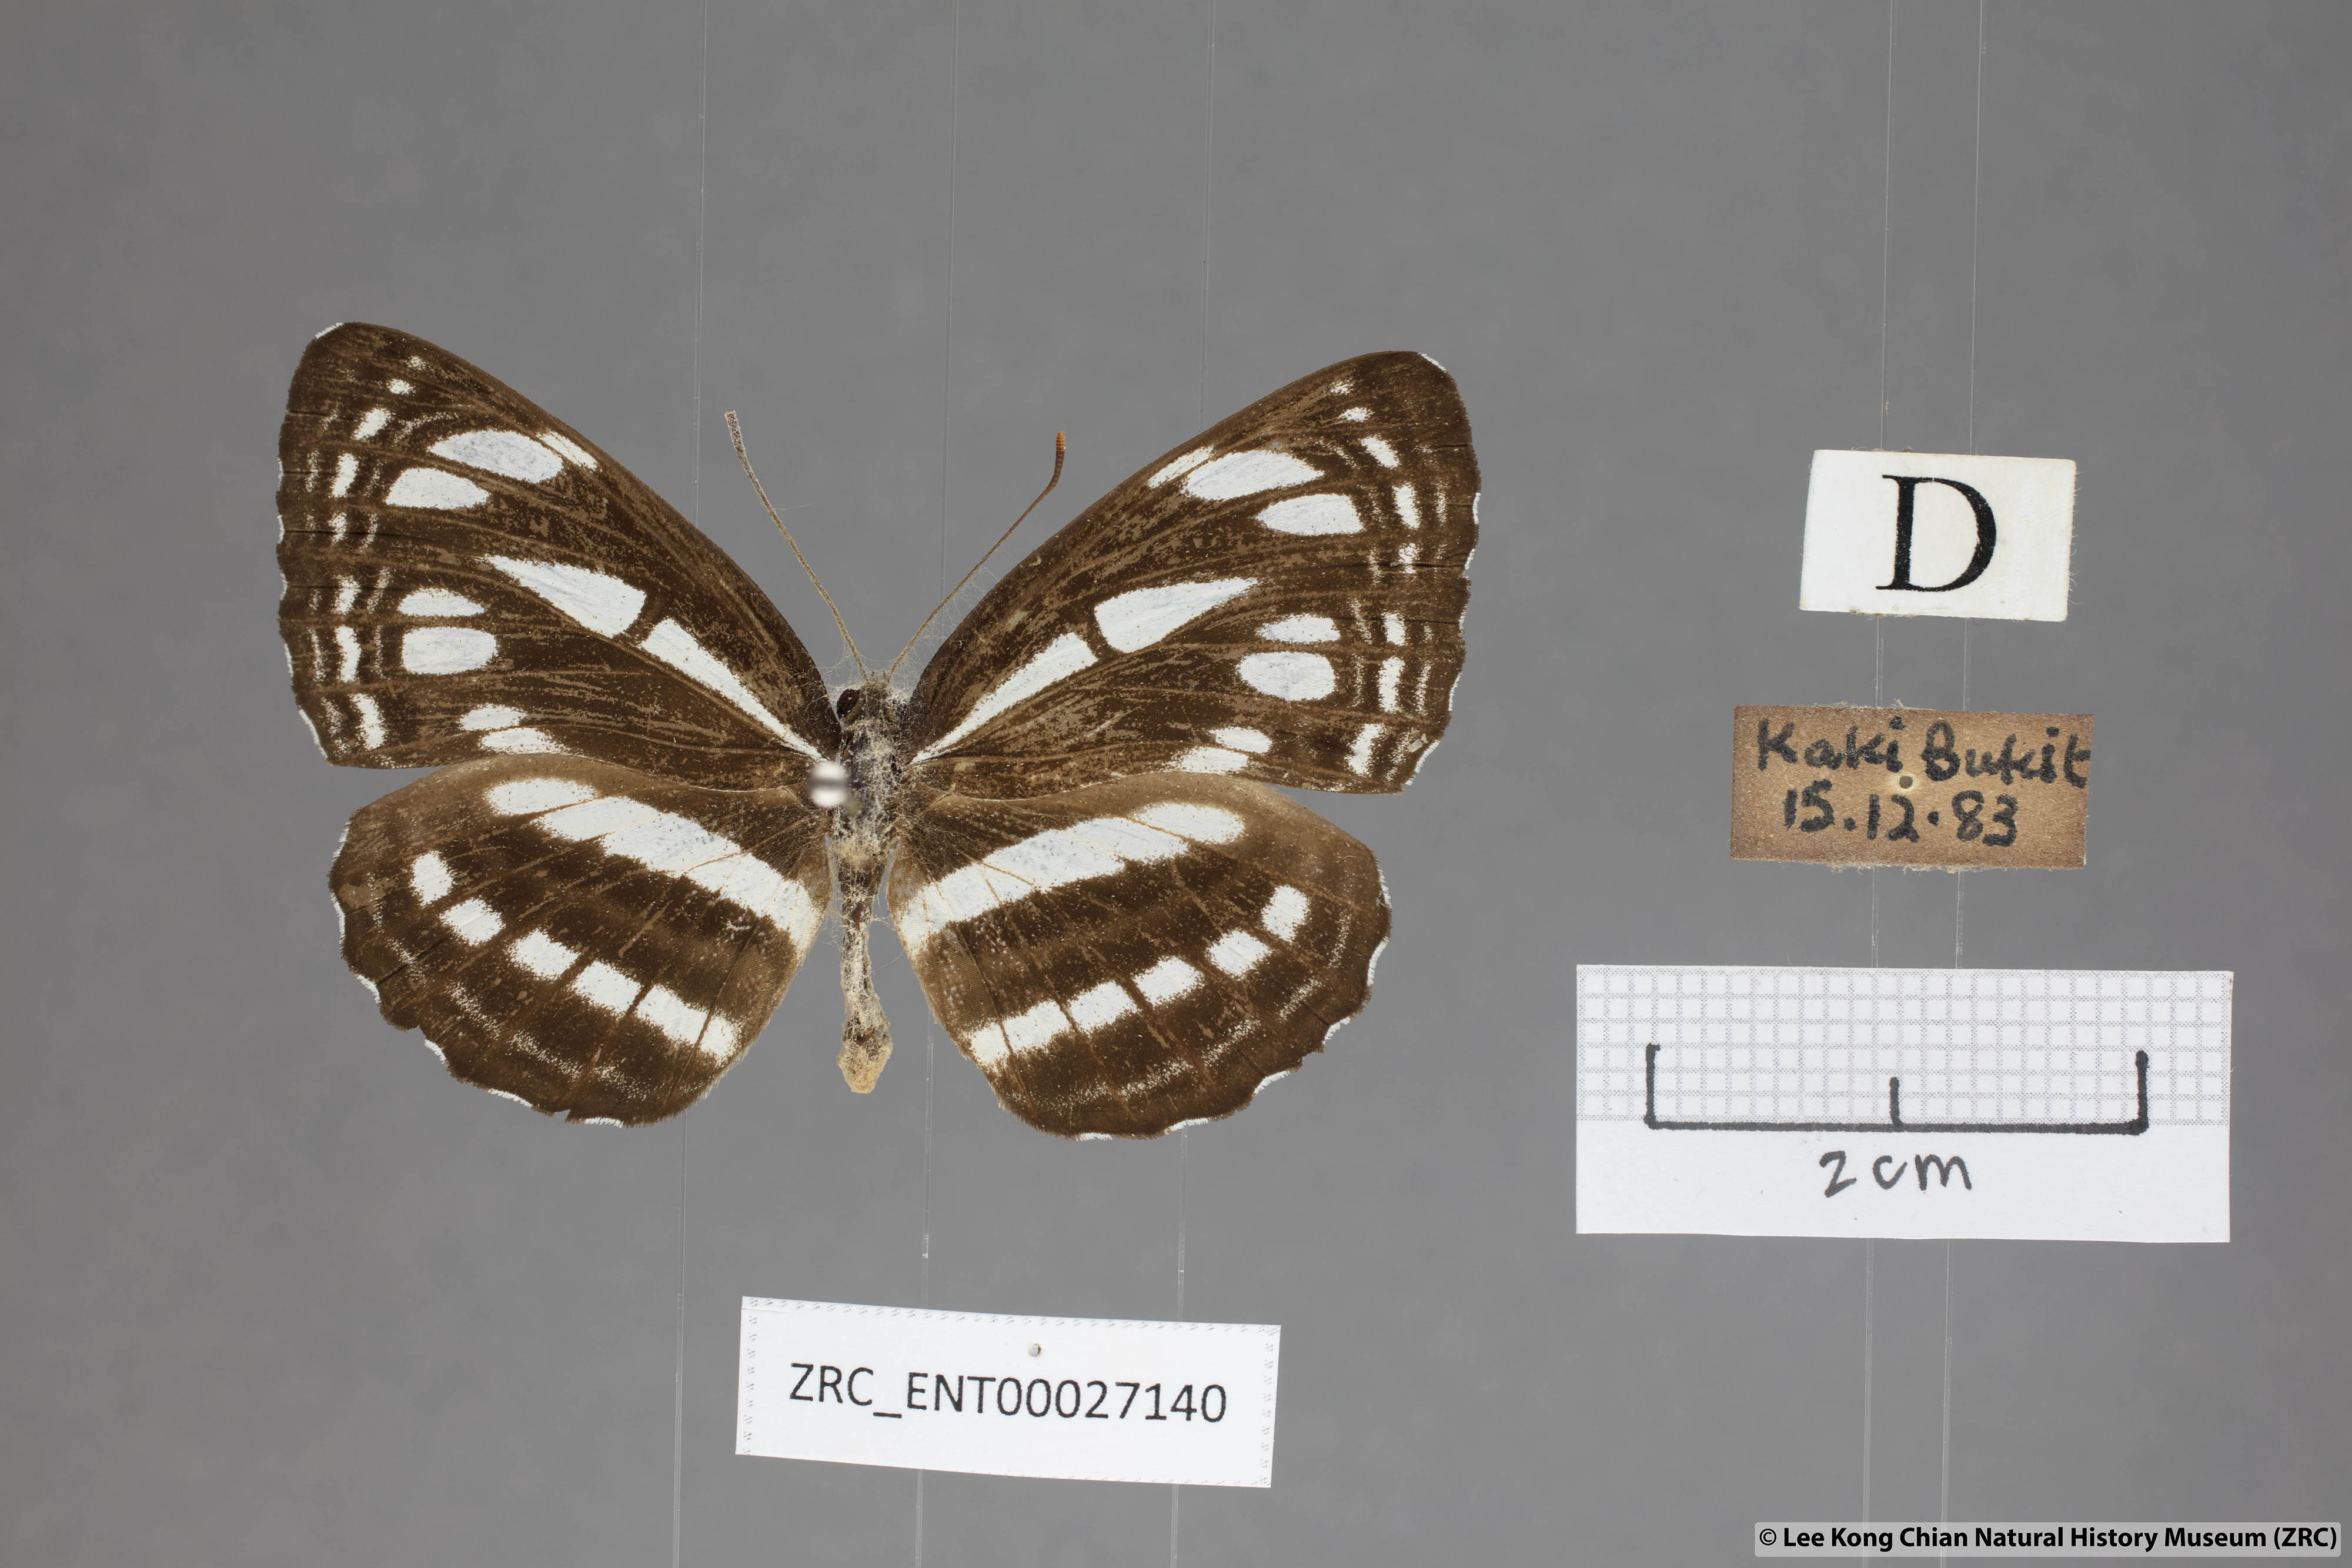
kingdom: Animalia
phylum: Arthropoda
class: Insecta
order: Lepidoptera
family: Nymphalidae
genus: Neptis
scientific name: Neptis duryodana
